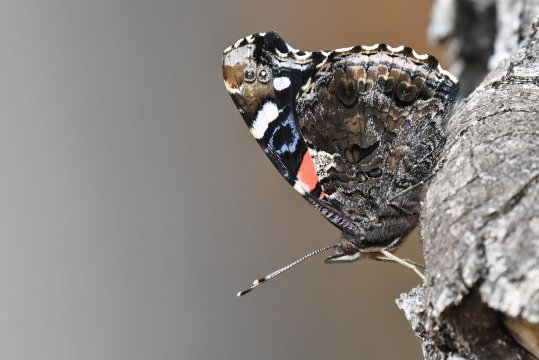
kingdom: Animalia
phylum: Arthropoda
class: Insecta
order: Lepidoptera
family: Nymphalidae
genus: Vanessa
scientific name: Vanessa atalanta
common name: Red Admiral
